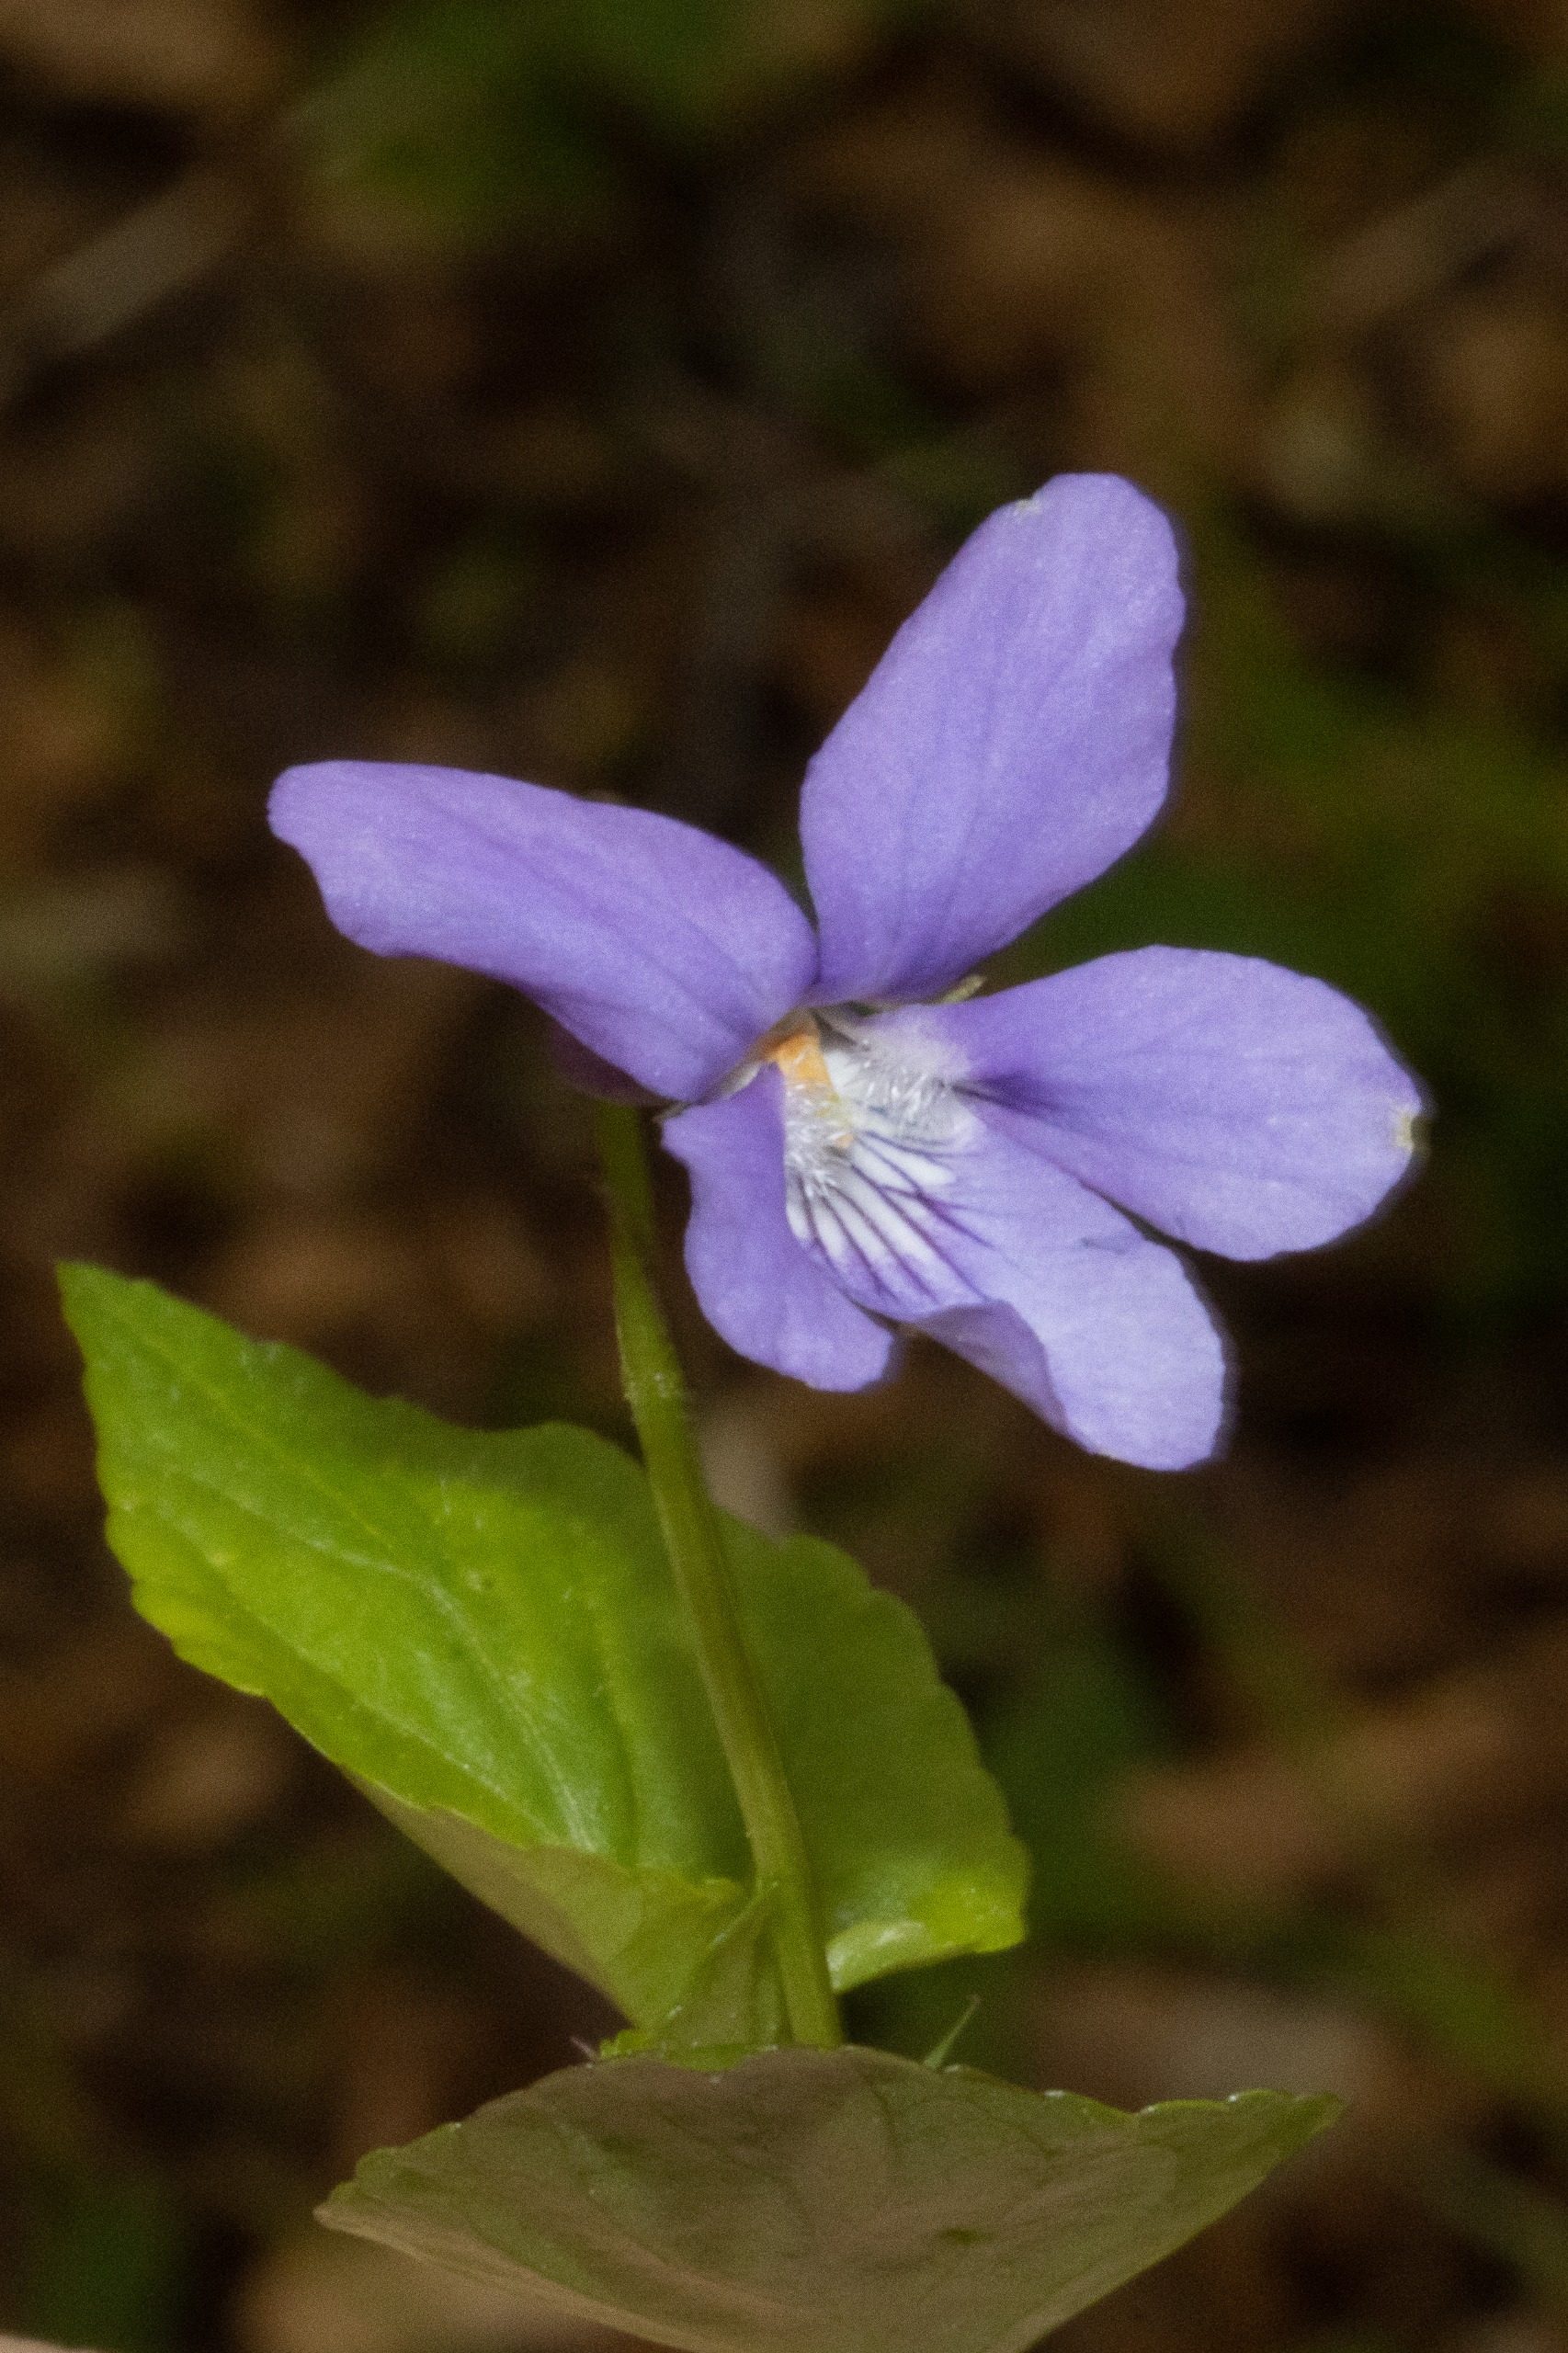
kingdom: Plantae
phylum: Tracheophyta
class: Magnoliopsida
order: Malpighiales
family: Violaceae
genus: Viola
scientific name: Viola reichenbachiana
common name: Skov-viol
